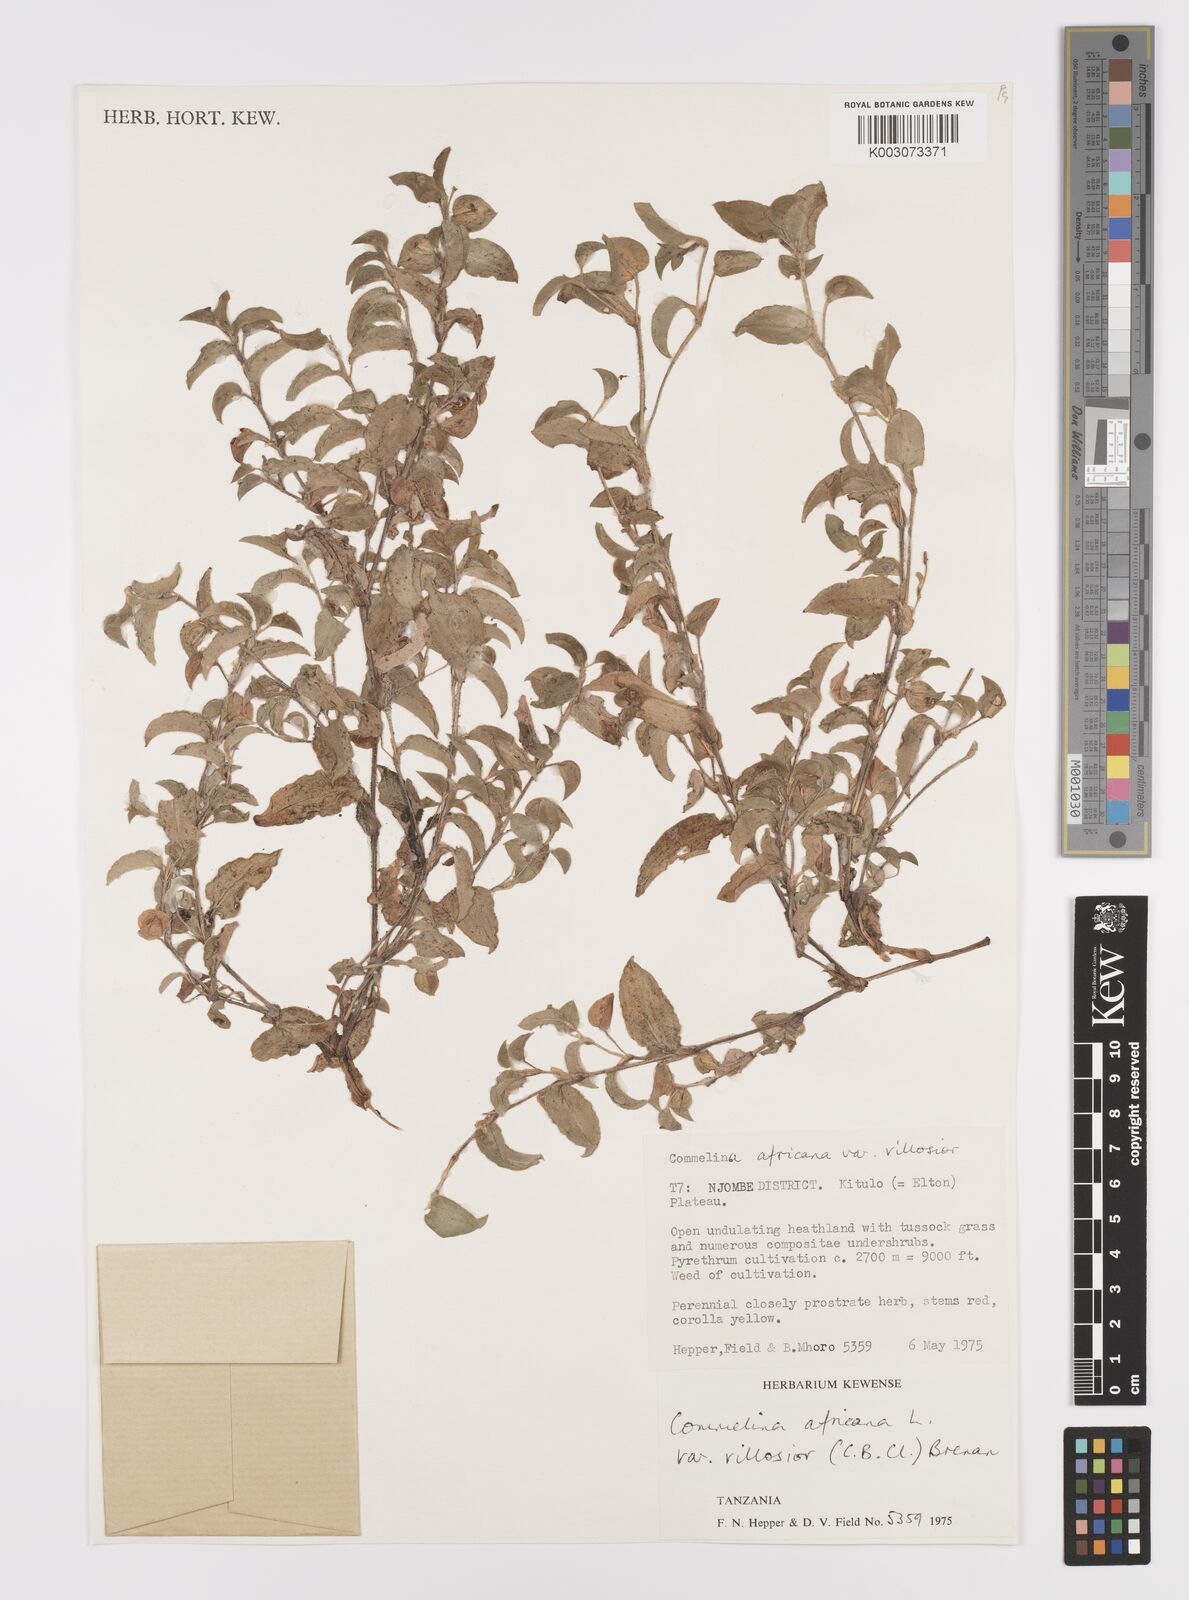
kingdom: Plantae
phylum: Tracheophyta
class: Liliopsida
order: Commelinales
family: Commelinaceae
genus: Commelina
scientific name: Commelina africana
